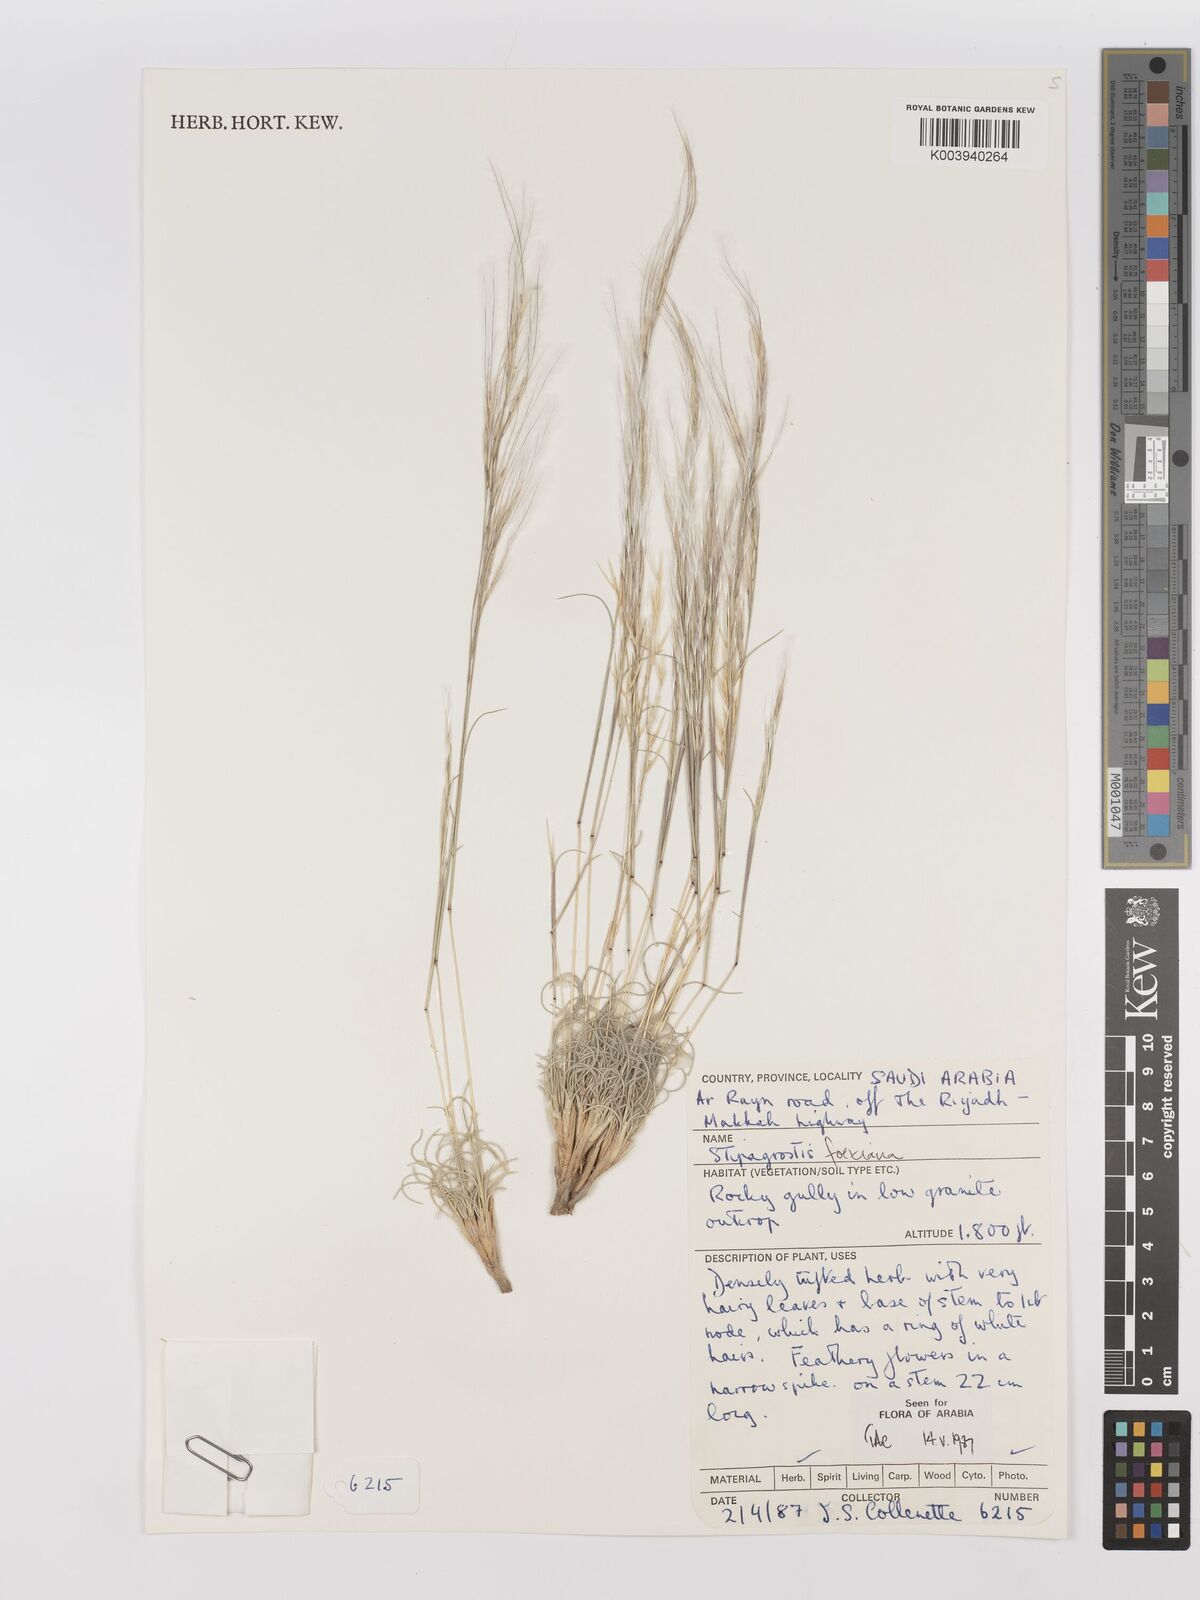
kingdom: Plantae
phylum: Tracheophyta
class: Liliopsida
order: Poales
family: Poaceae
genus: Stipagrostis
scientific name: Stipagrostis foexiana
